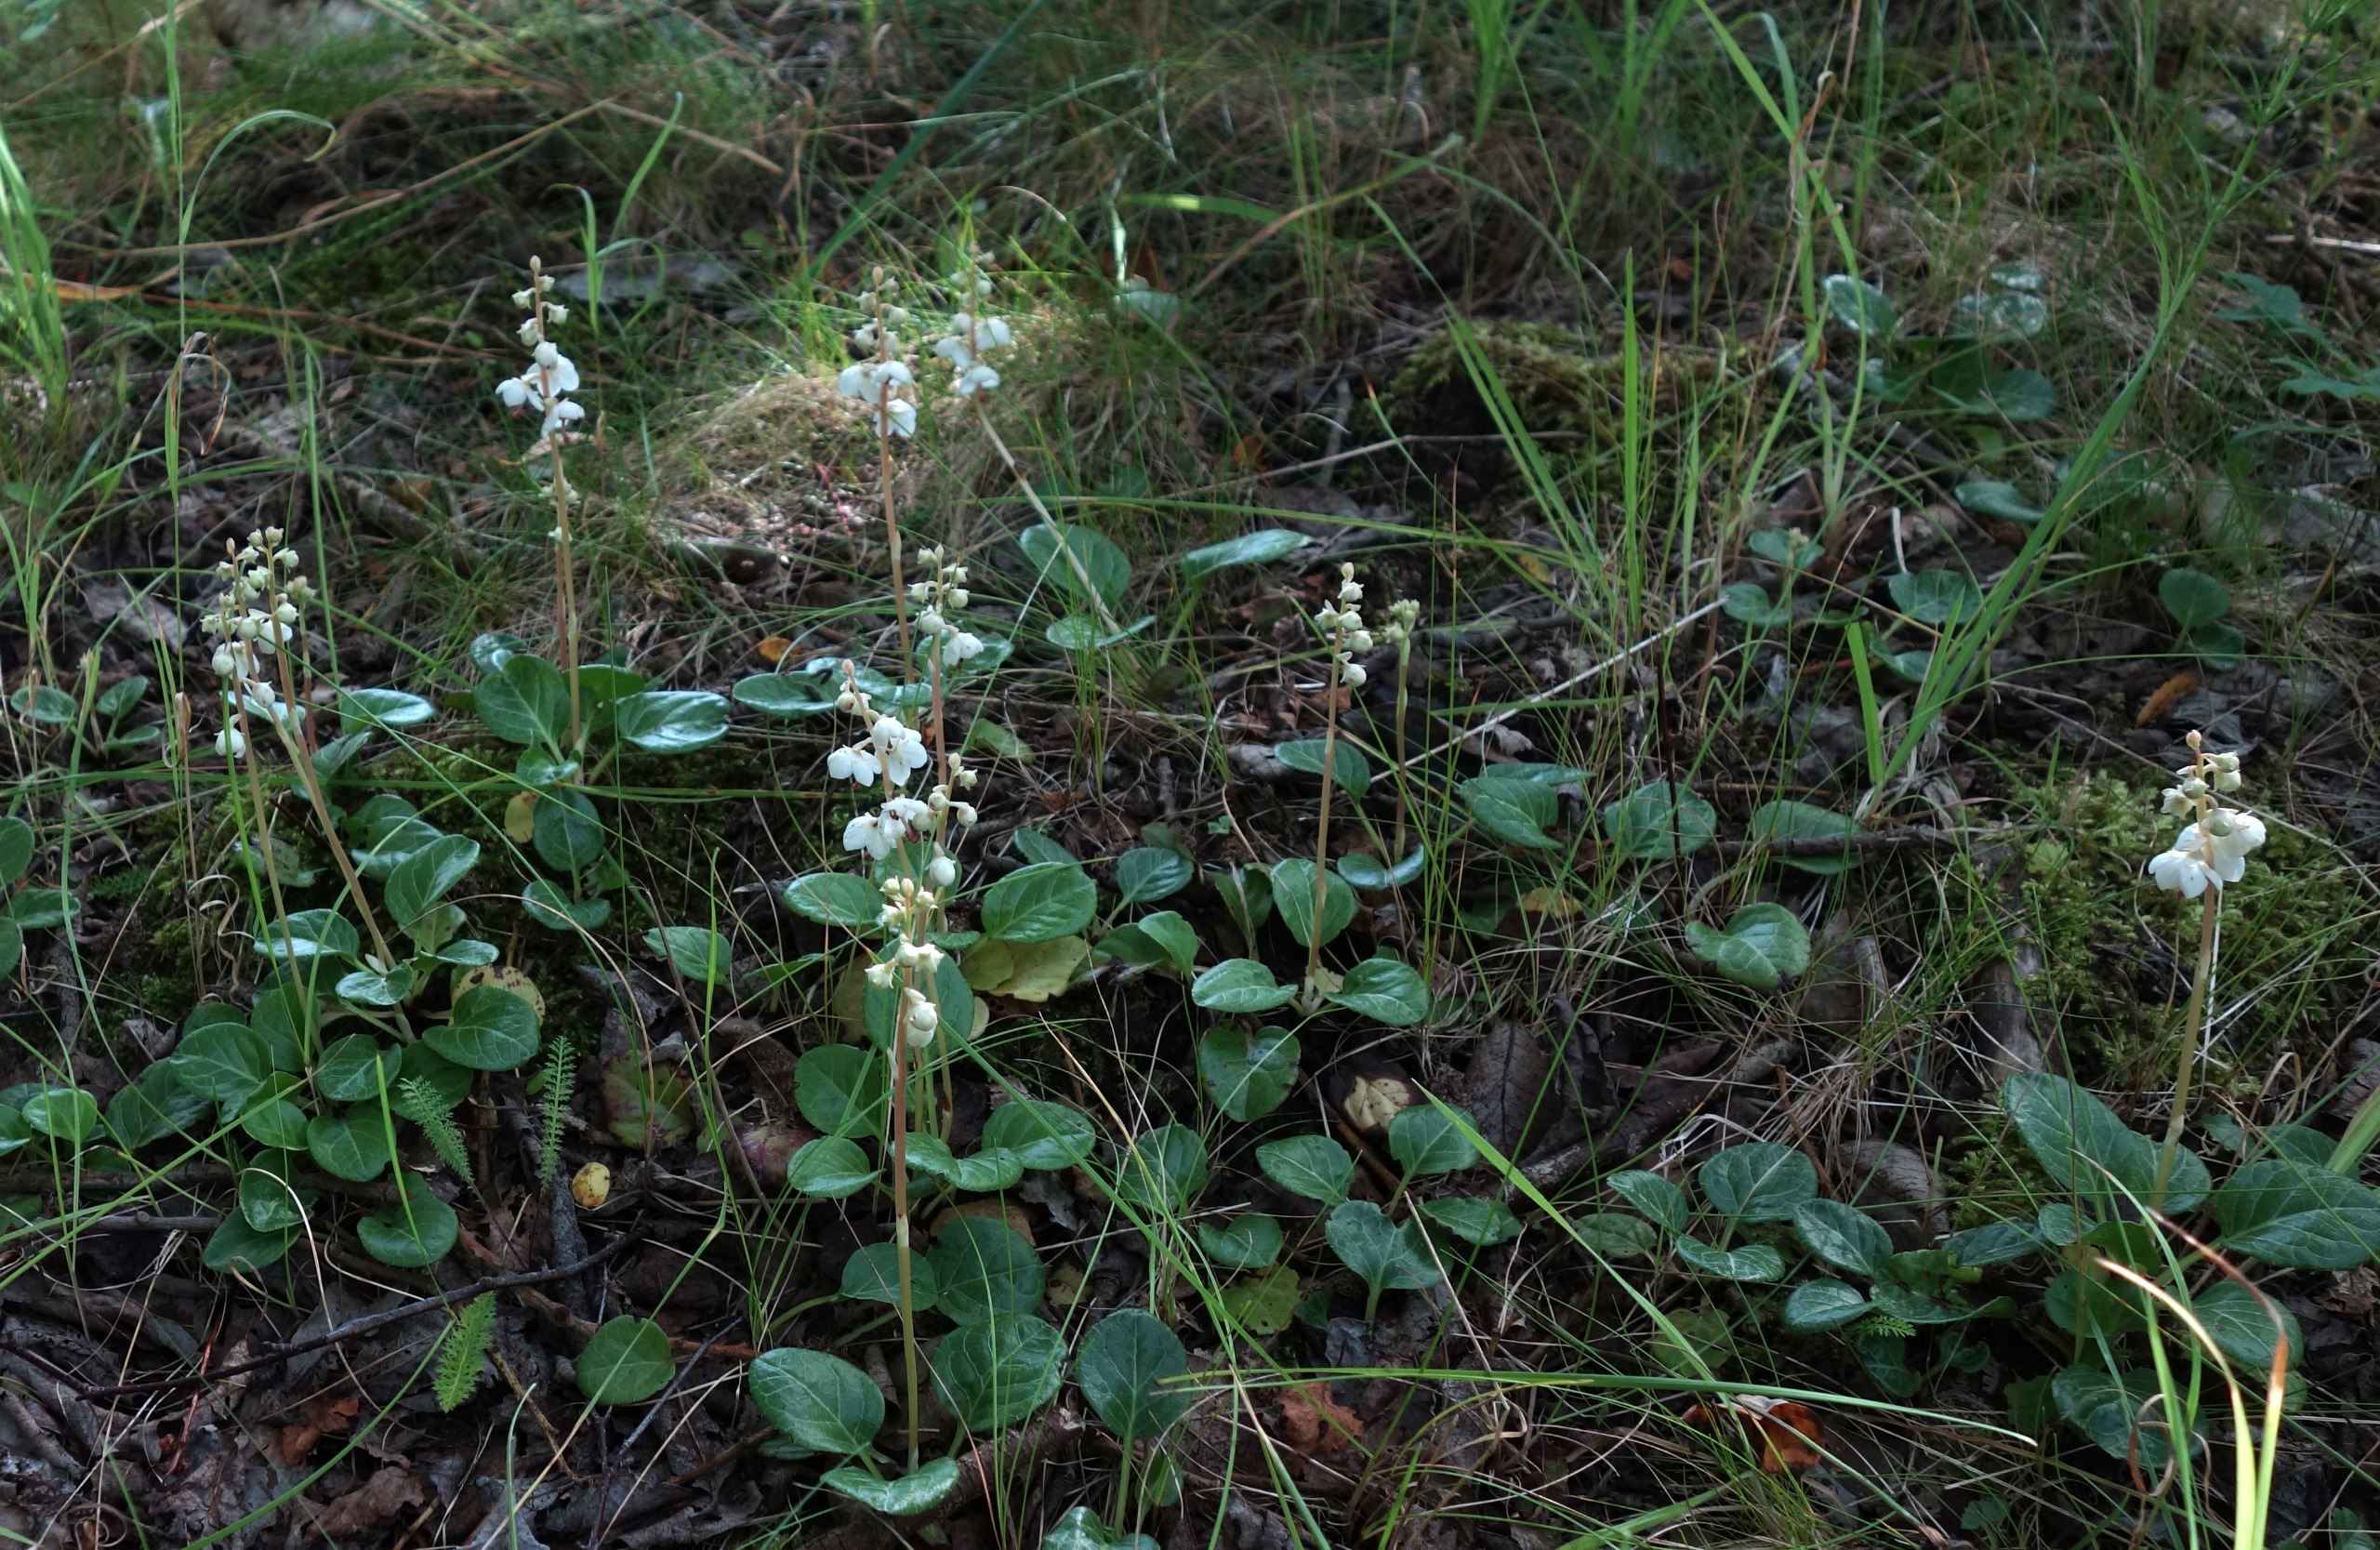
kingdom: Plantae
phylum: Tracheophyta
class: Magnoliopsida
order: Ericales
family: Ericaceae
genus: Pyrola
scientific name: Pyrola rotundifolia
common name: Mose-vintergrøn (underart)
